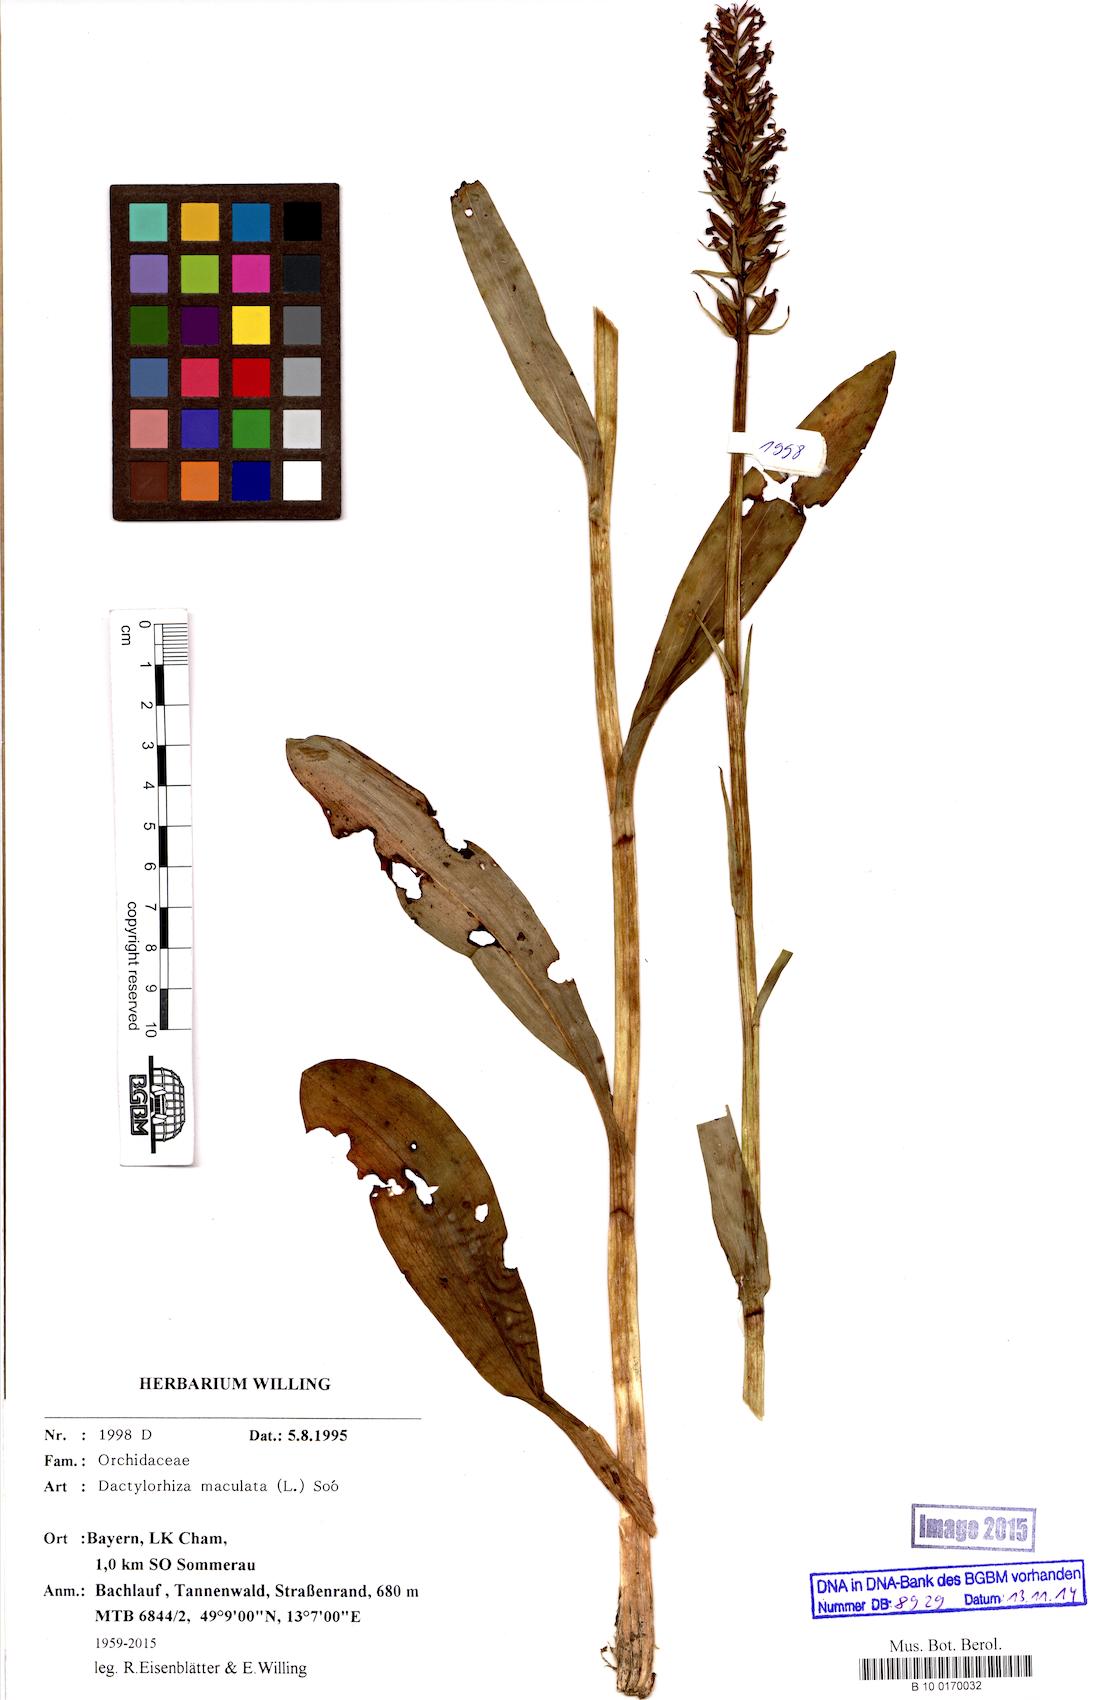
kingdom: Plantae
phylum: Tracheophyta
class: Liliopsida
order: Asparagales
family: Orchidaceae
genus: Dactylorhiza
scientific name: Dactylorhiza maculata
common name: Heath spotted-orchid
